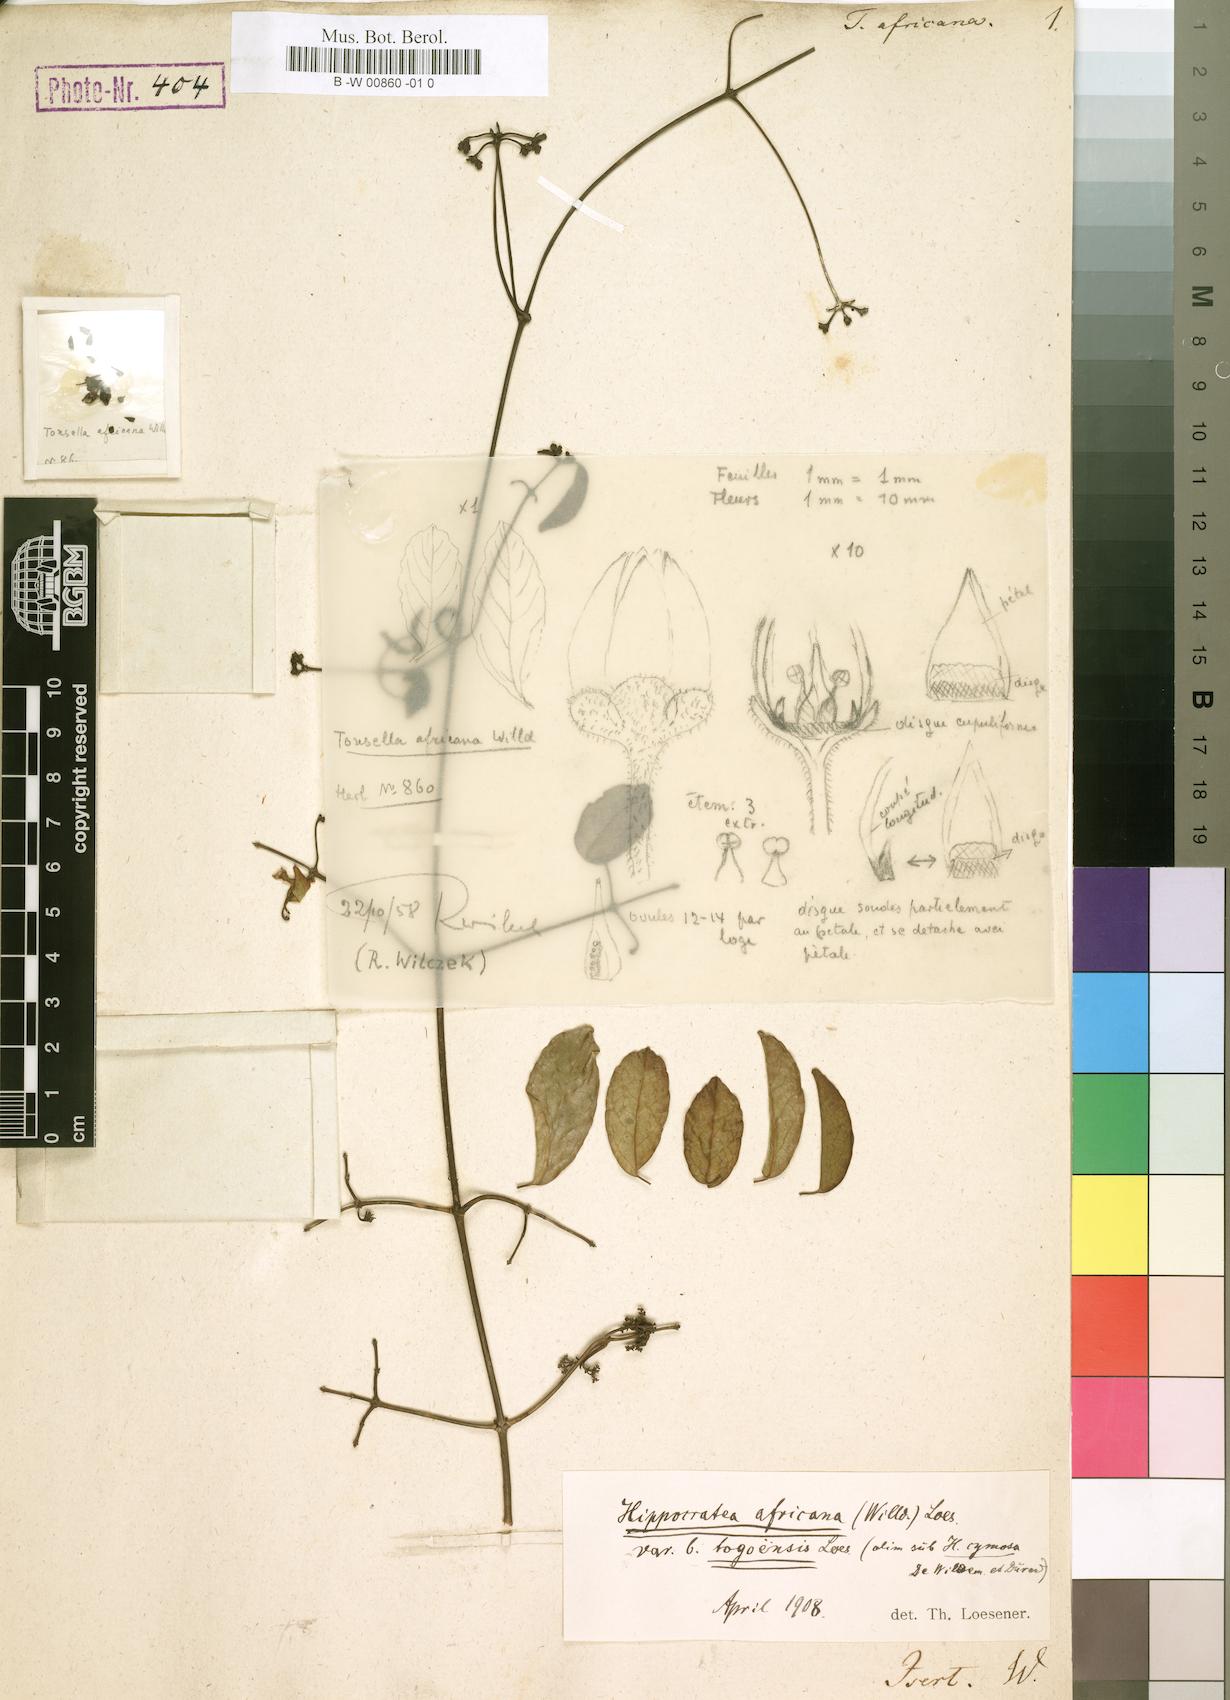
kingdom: Plantae
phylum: Tracheophyta
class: Magnoliopsida
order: Celastrales
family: Celastraceae
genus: Loeseneriella
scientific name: Loeseneriella africana
